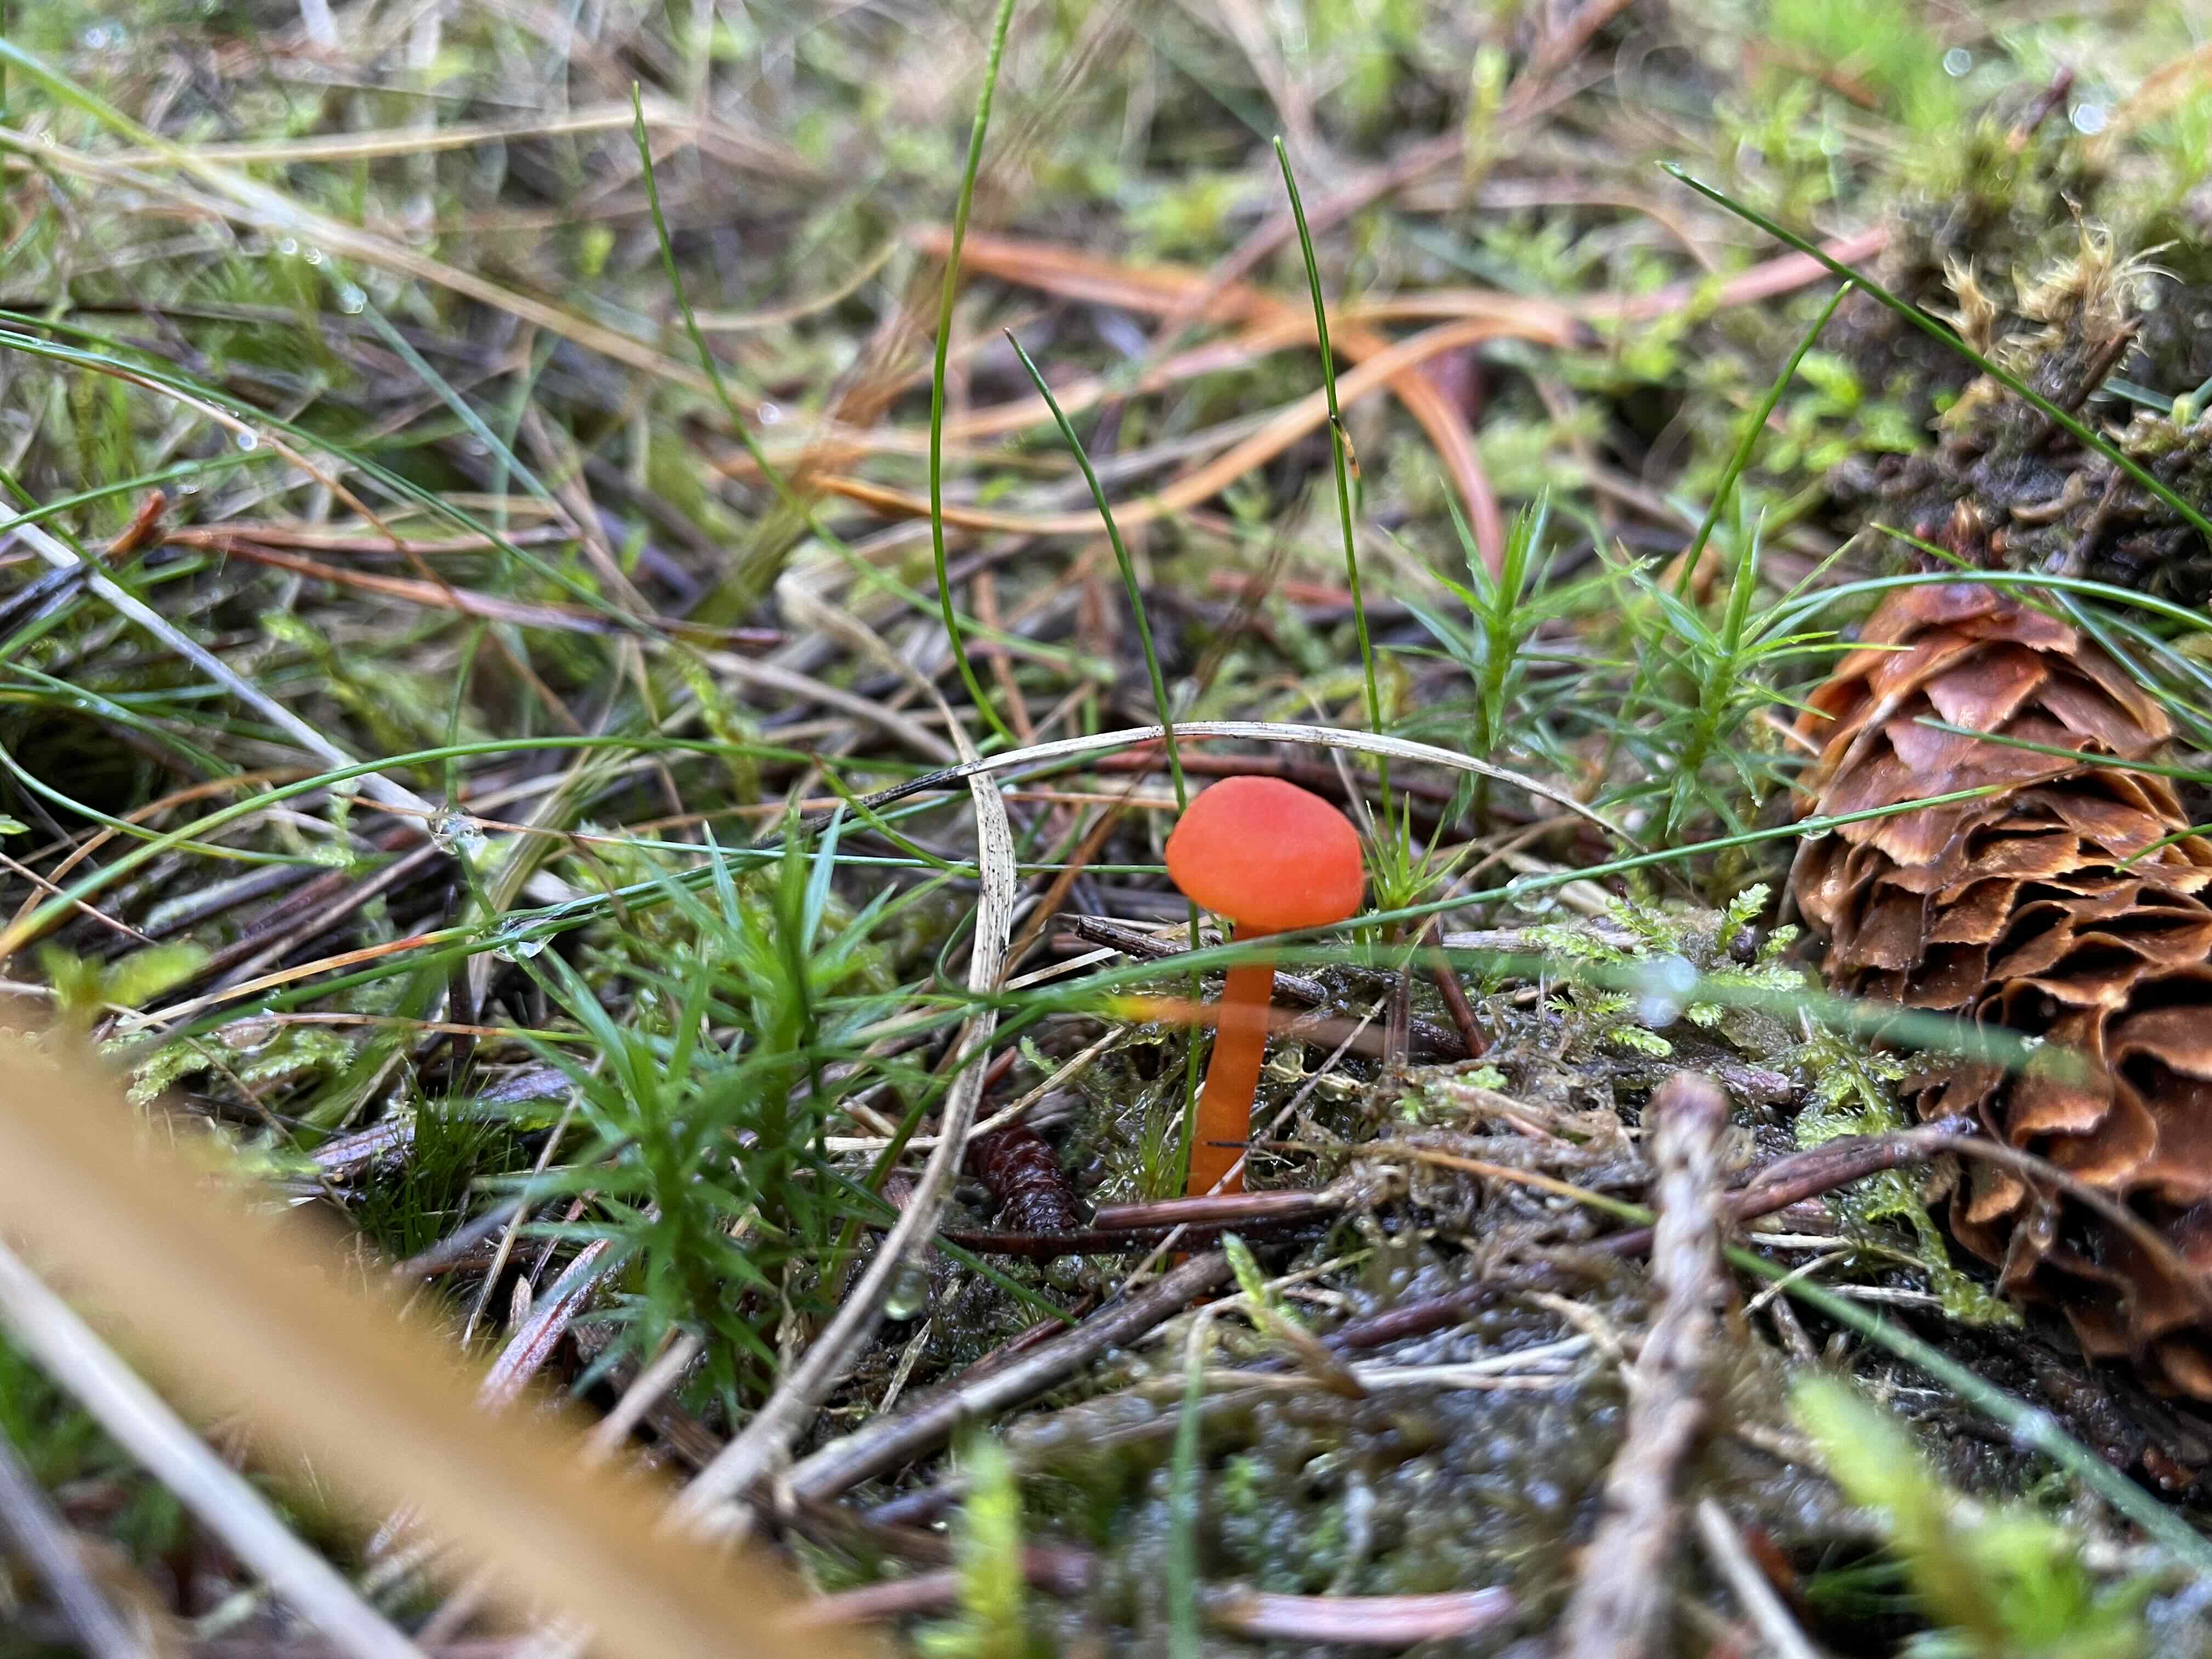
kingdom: Fungi
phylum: Basidiomycota
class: Agaricomycetes
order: Agaricales
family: Hygrophoraceae
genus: Hygrocybe
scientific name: Hygrocybe
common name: vokshat
